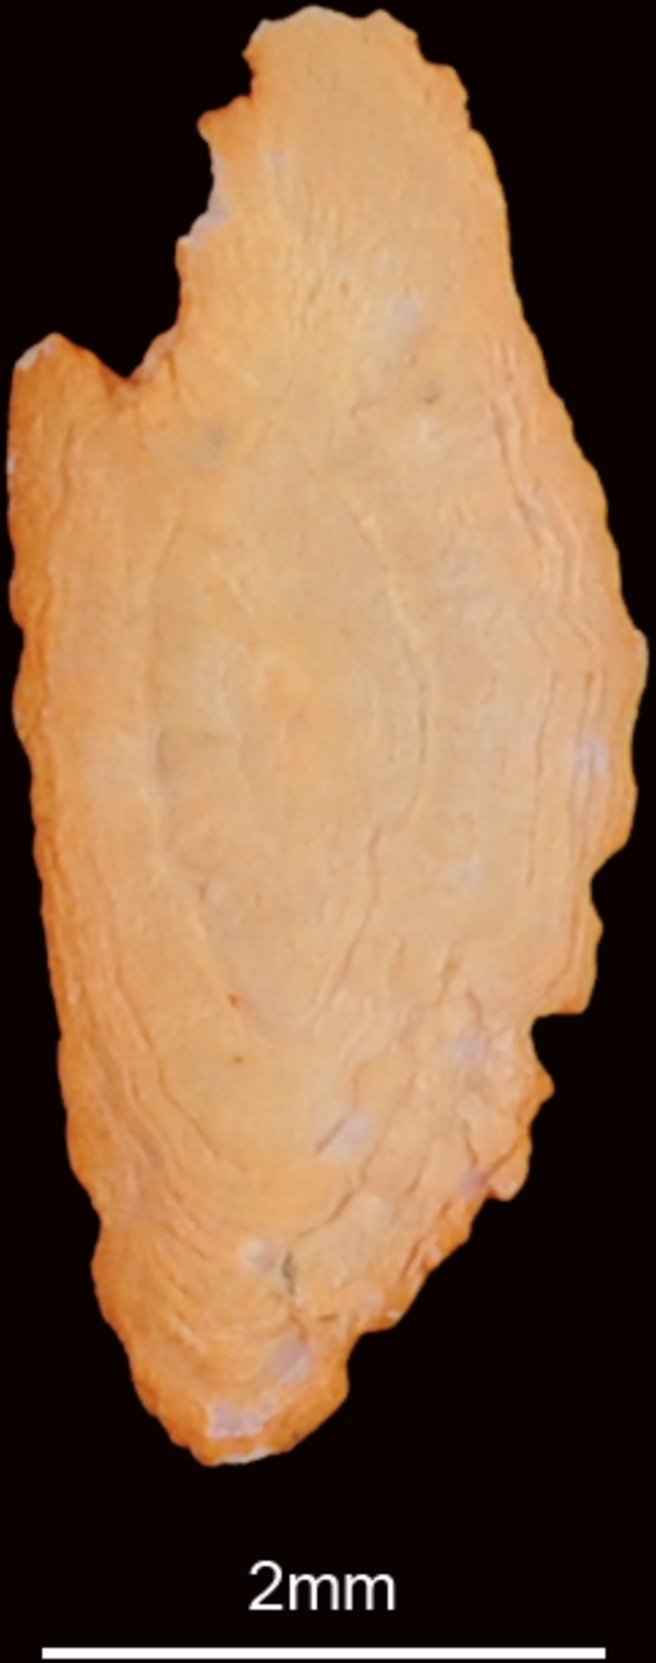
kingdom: Animalia
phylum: Chordata
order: Scorpaeniformes
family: Scorpaenidae
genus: Pterois
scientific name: Pterois russelii
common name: Plaintail firefish
